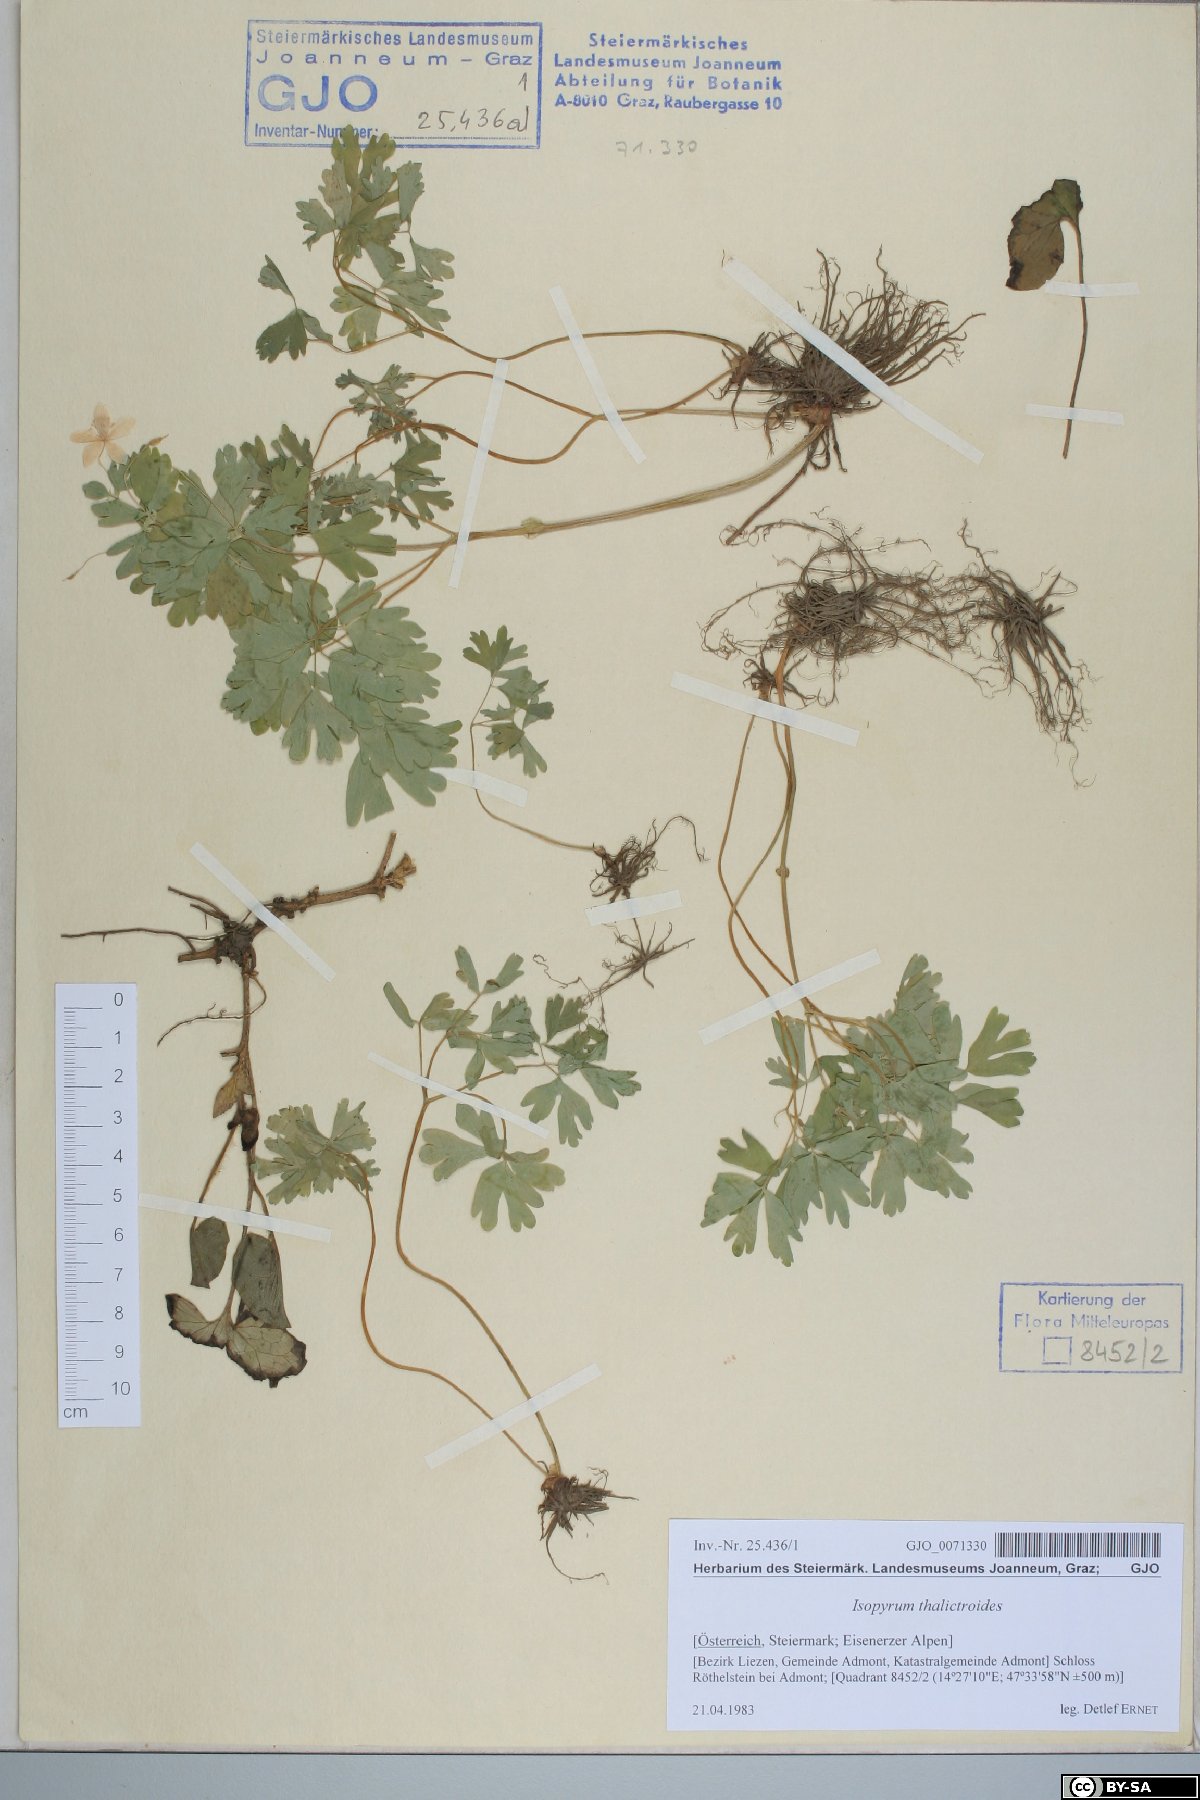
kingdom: Plantae
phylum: Tracheophyta
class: Magnoliopsida
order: Ranunculales
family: Ranunculaceae
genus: Isopyrum
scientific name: Isopyrum thalictroides
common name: Isopyrum
